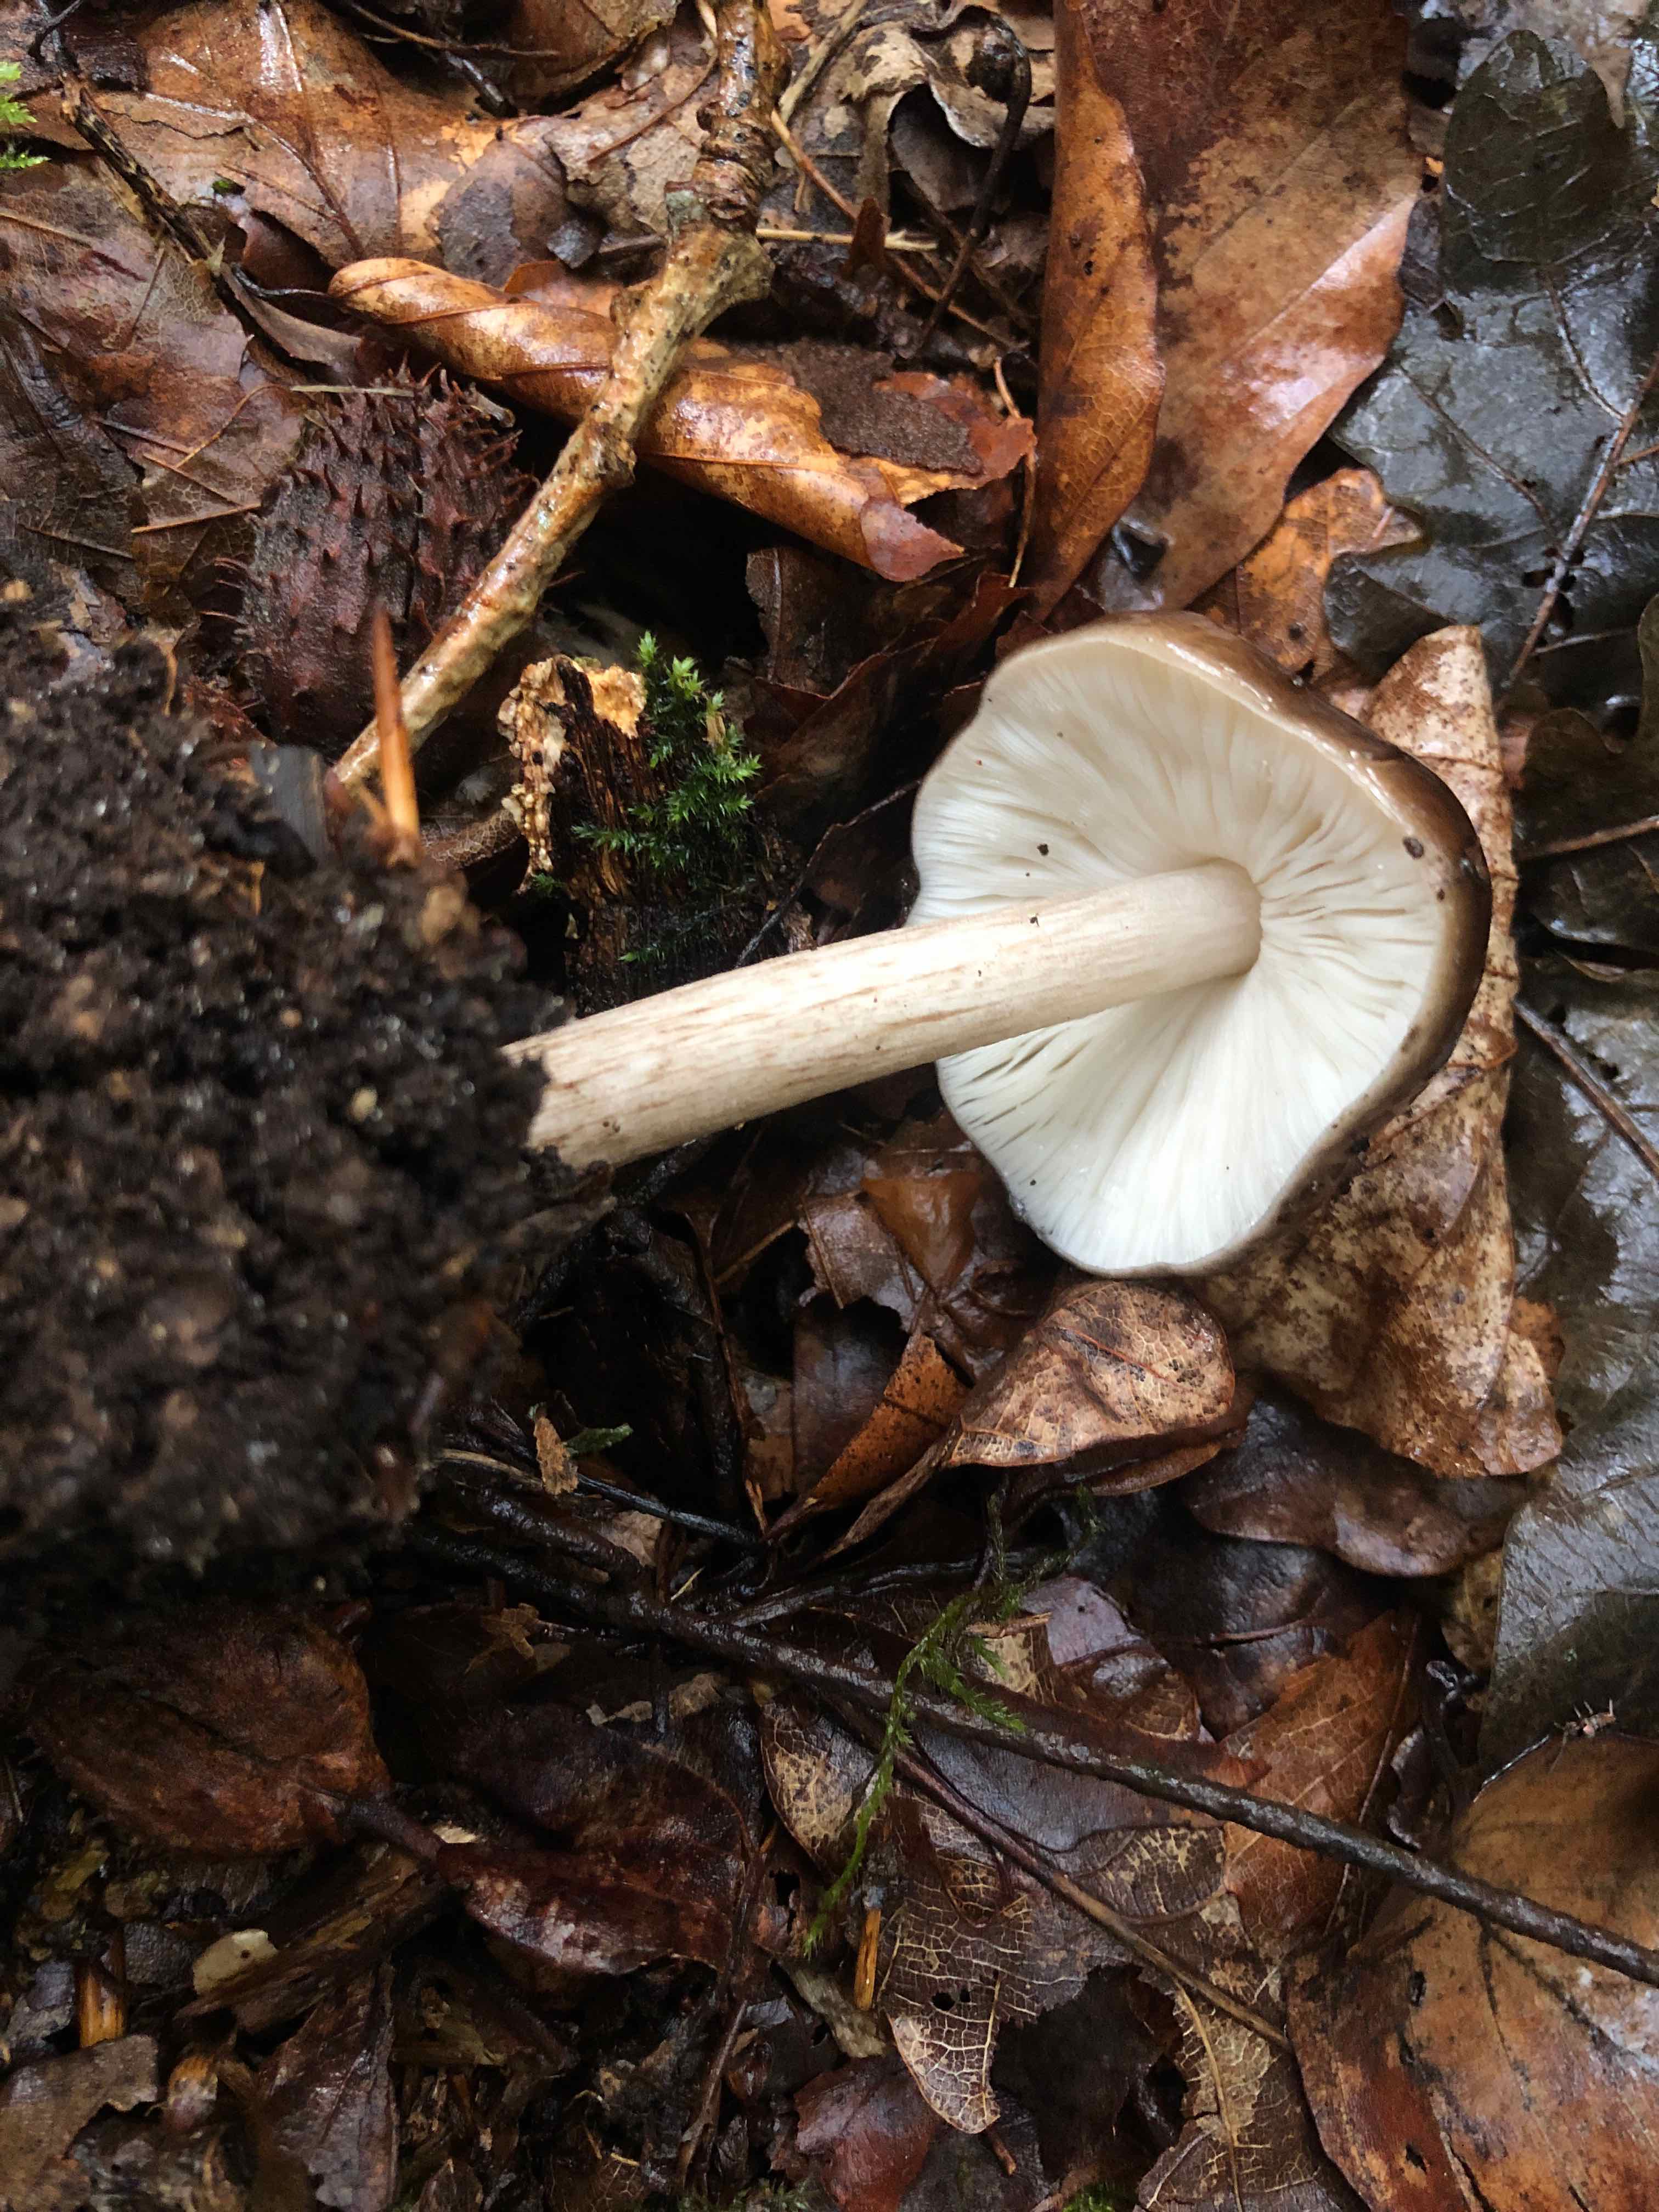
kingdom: Fungi
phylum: Basidiomycota
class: Agaricomycetes
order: Agaricales
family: Pluteaceae
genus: Pluteus
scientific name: Pluteus cervinus
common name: sodfarvet skærmhat
